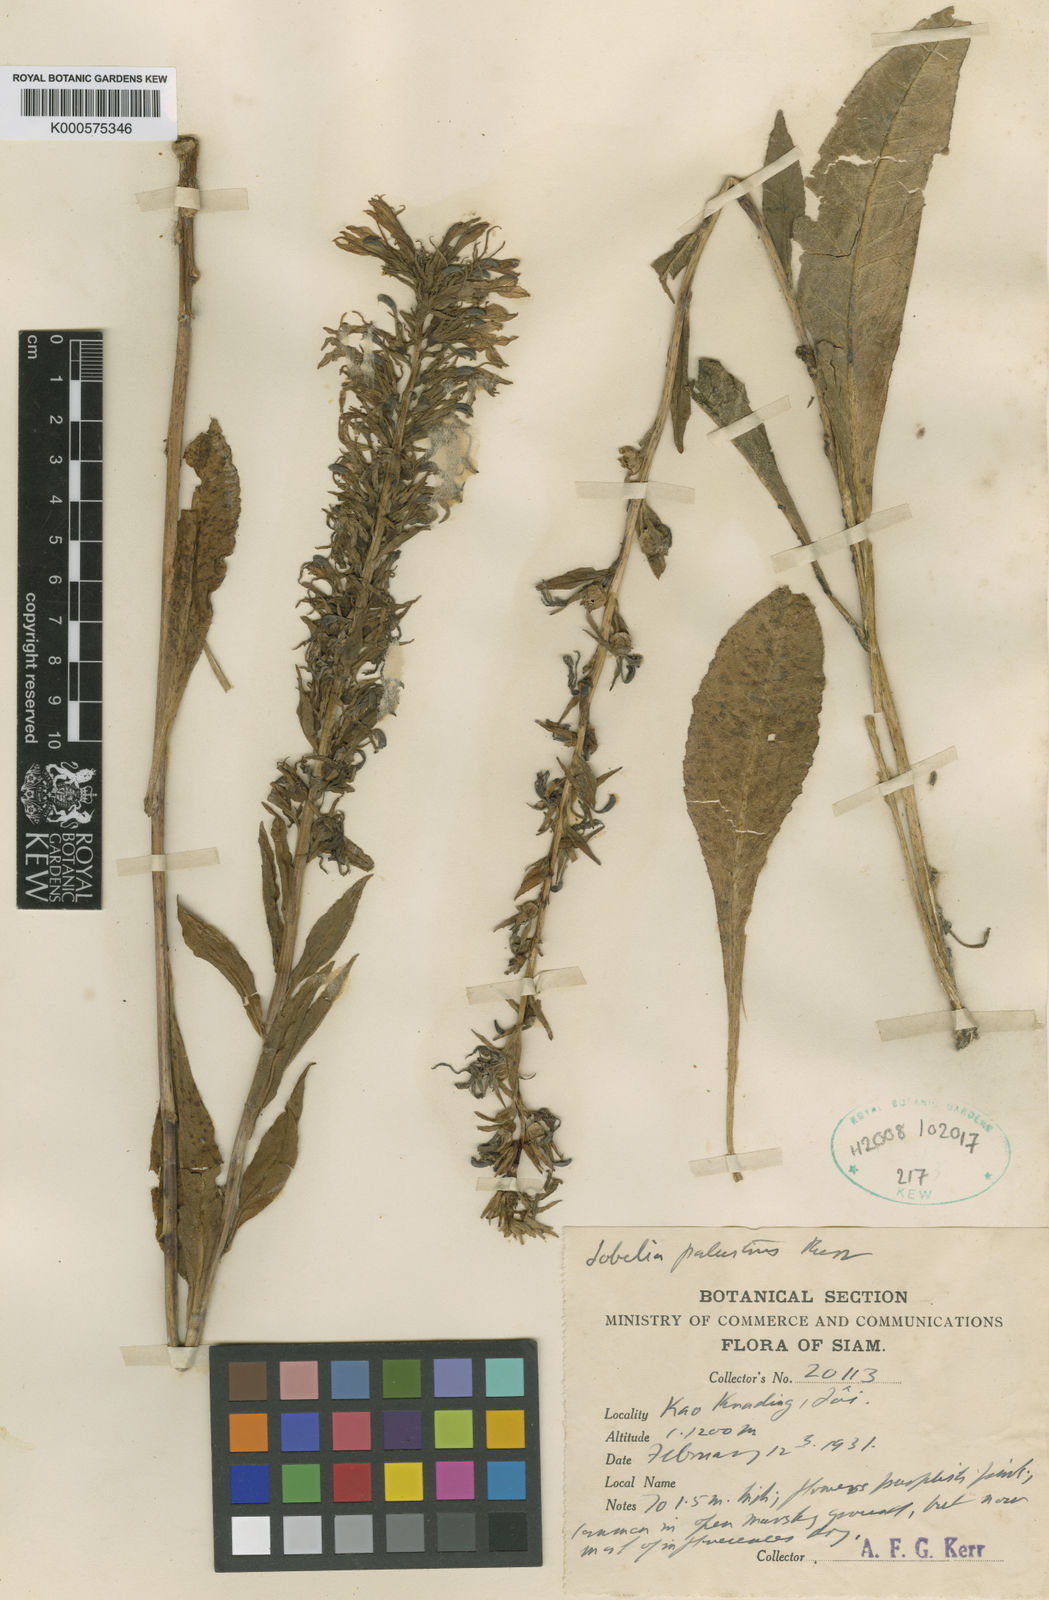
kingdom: Plantae
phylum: Tracheophyta
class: Magnoliopsida
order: Asterales
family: Campanulaceae
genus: Lobelia
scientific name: Lobelia
